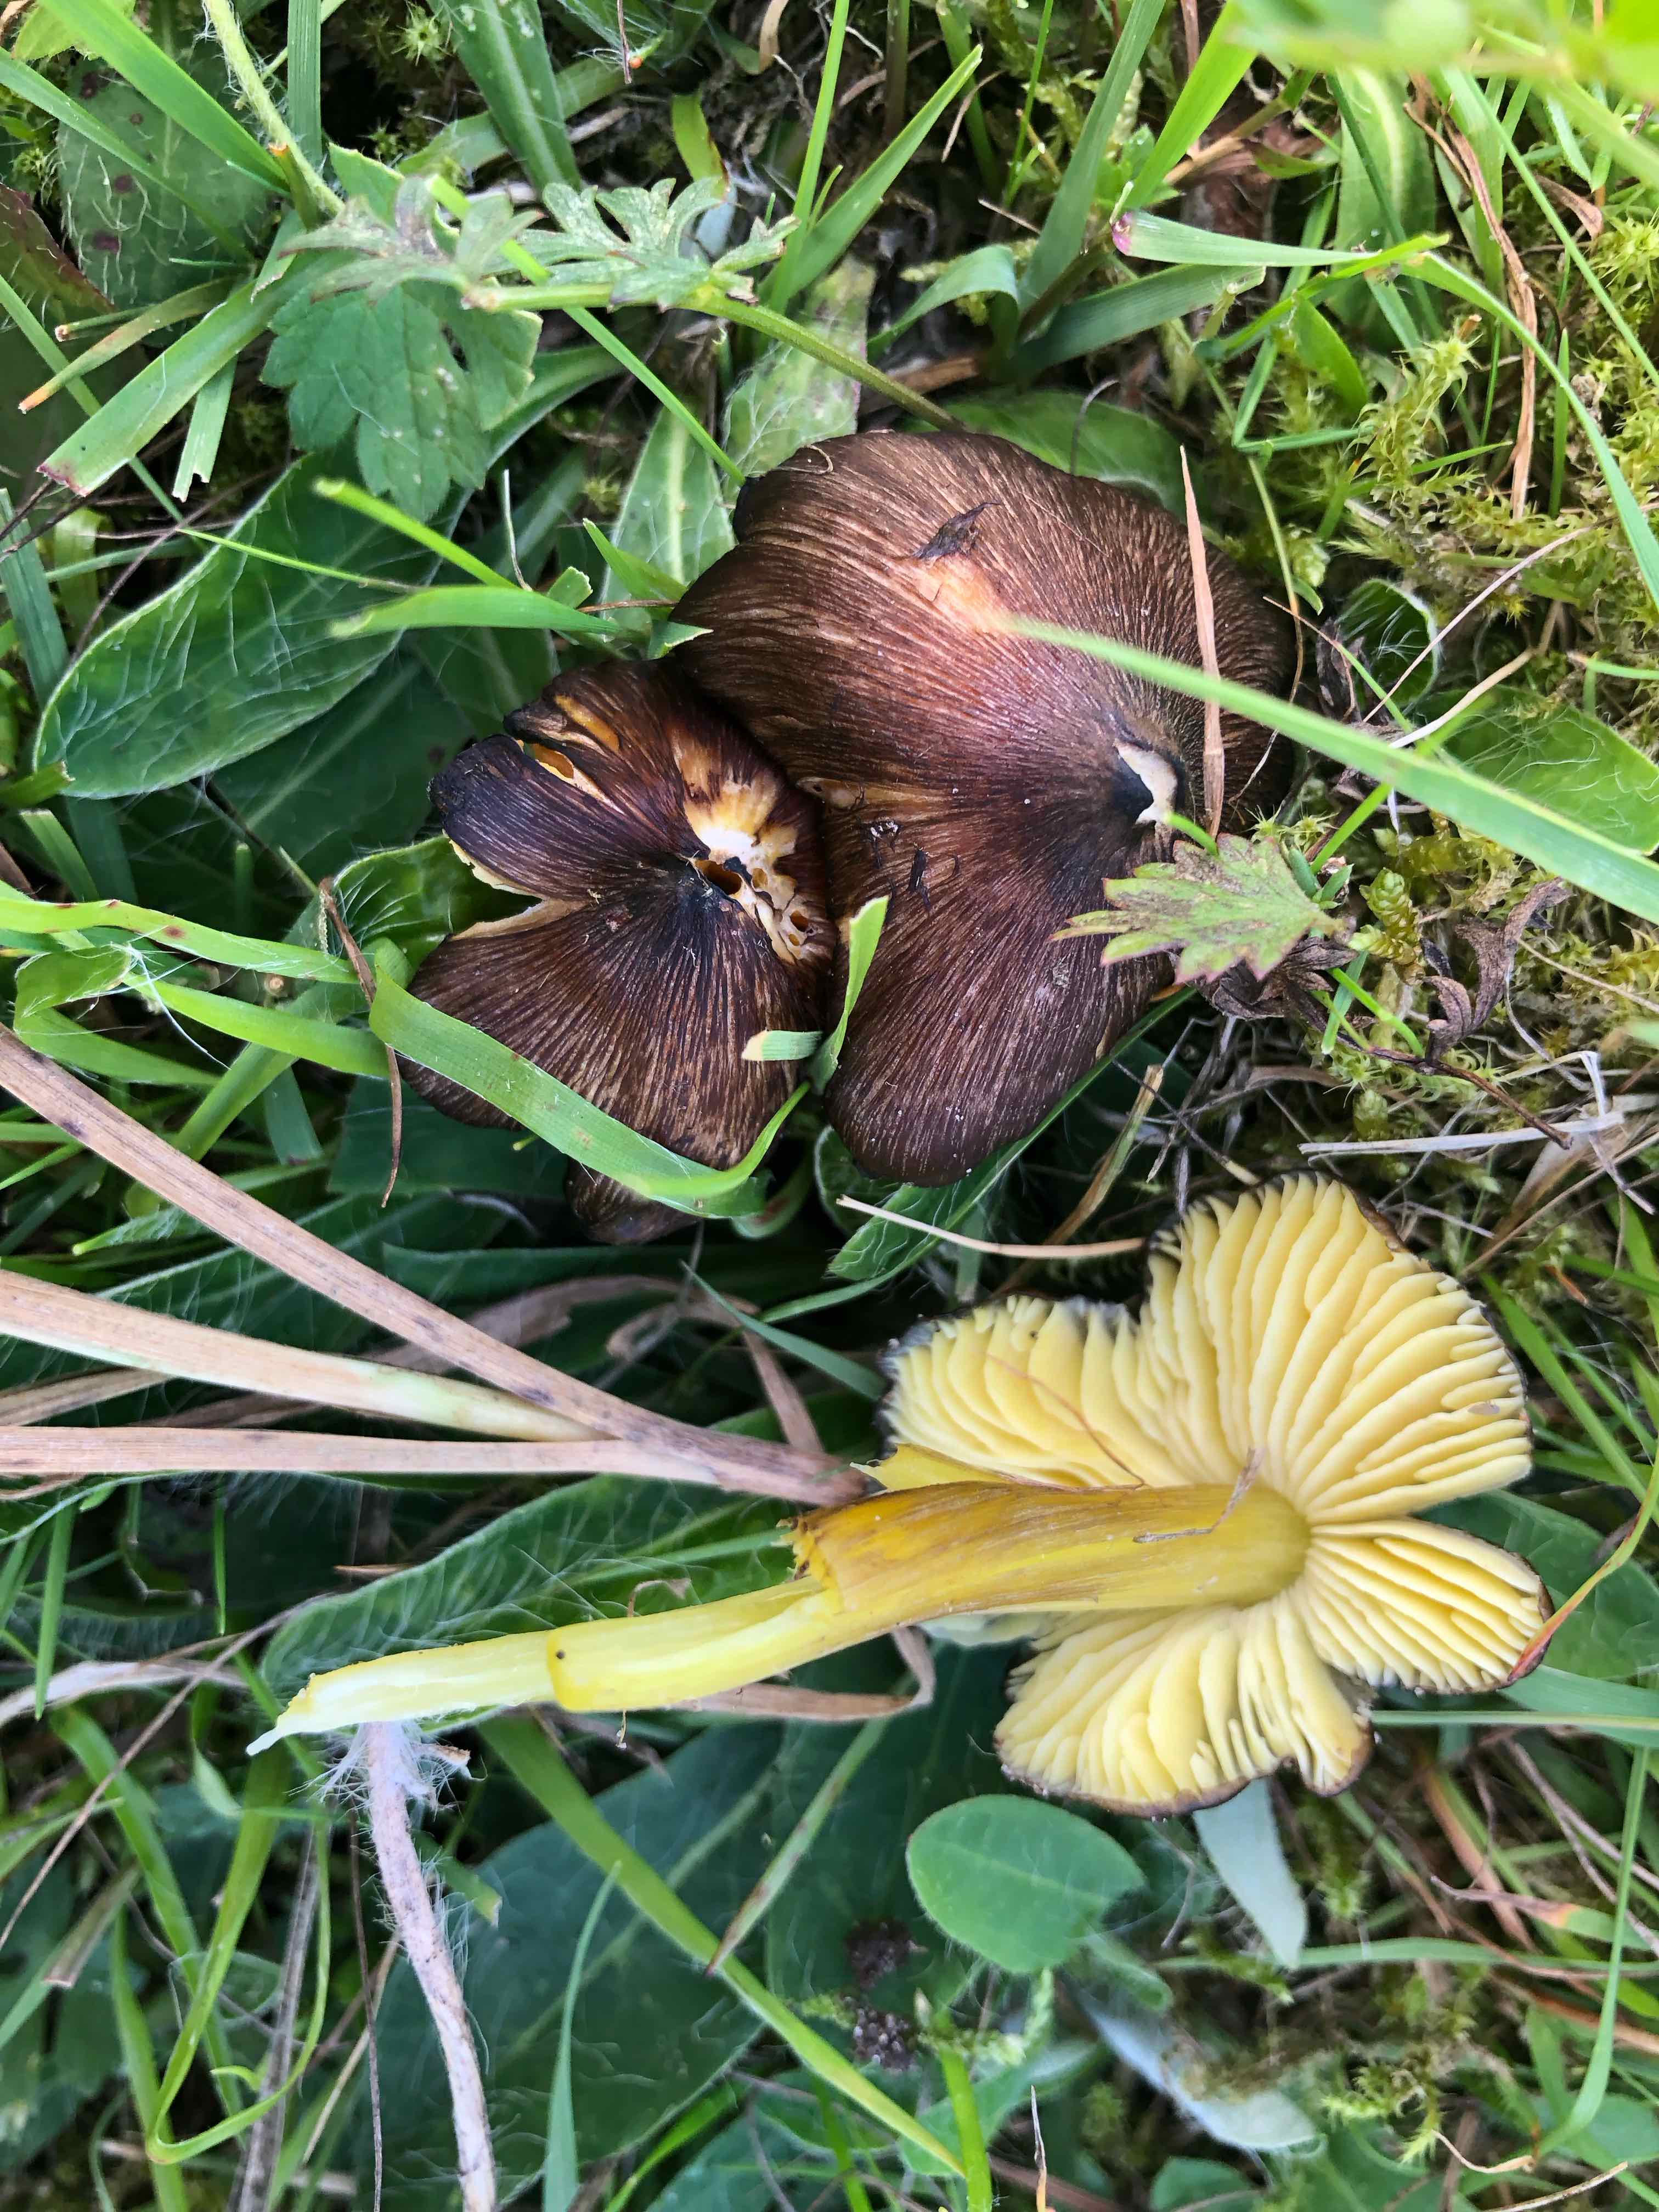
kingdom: Fungi
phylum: Basidiomycota
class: Agaricomycetes
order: Agaricales
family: Hygrophoraceae
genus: Hygrocybe
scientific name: Hygrocybe spadicea
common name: daddelbrun vokshat
